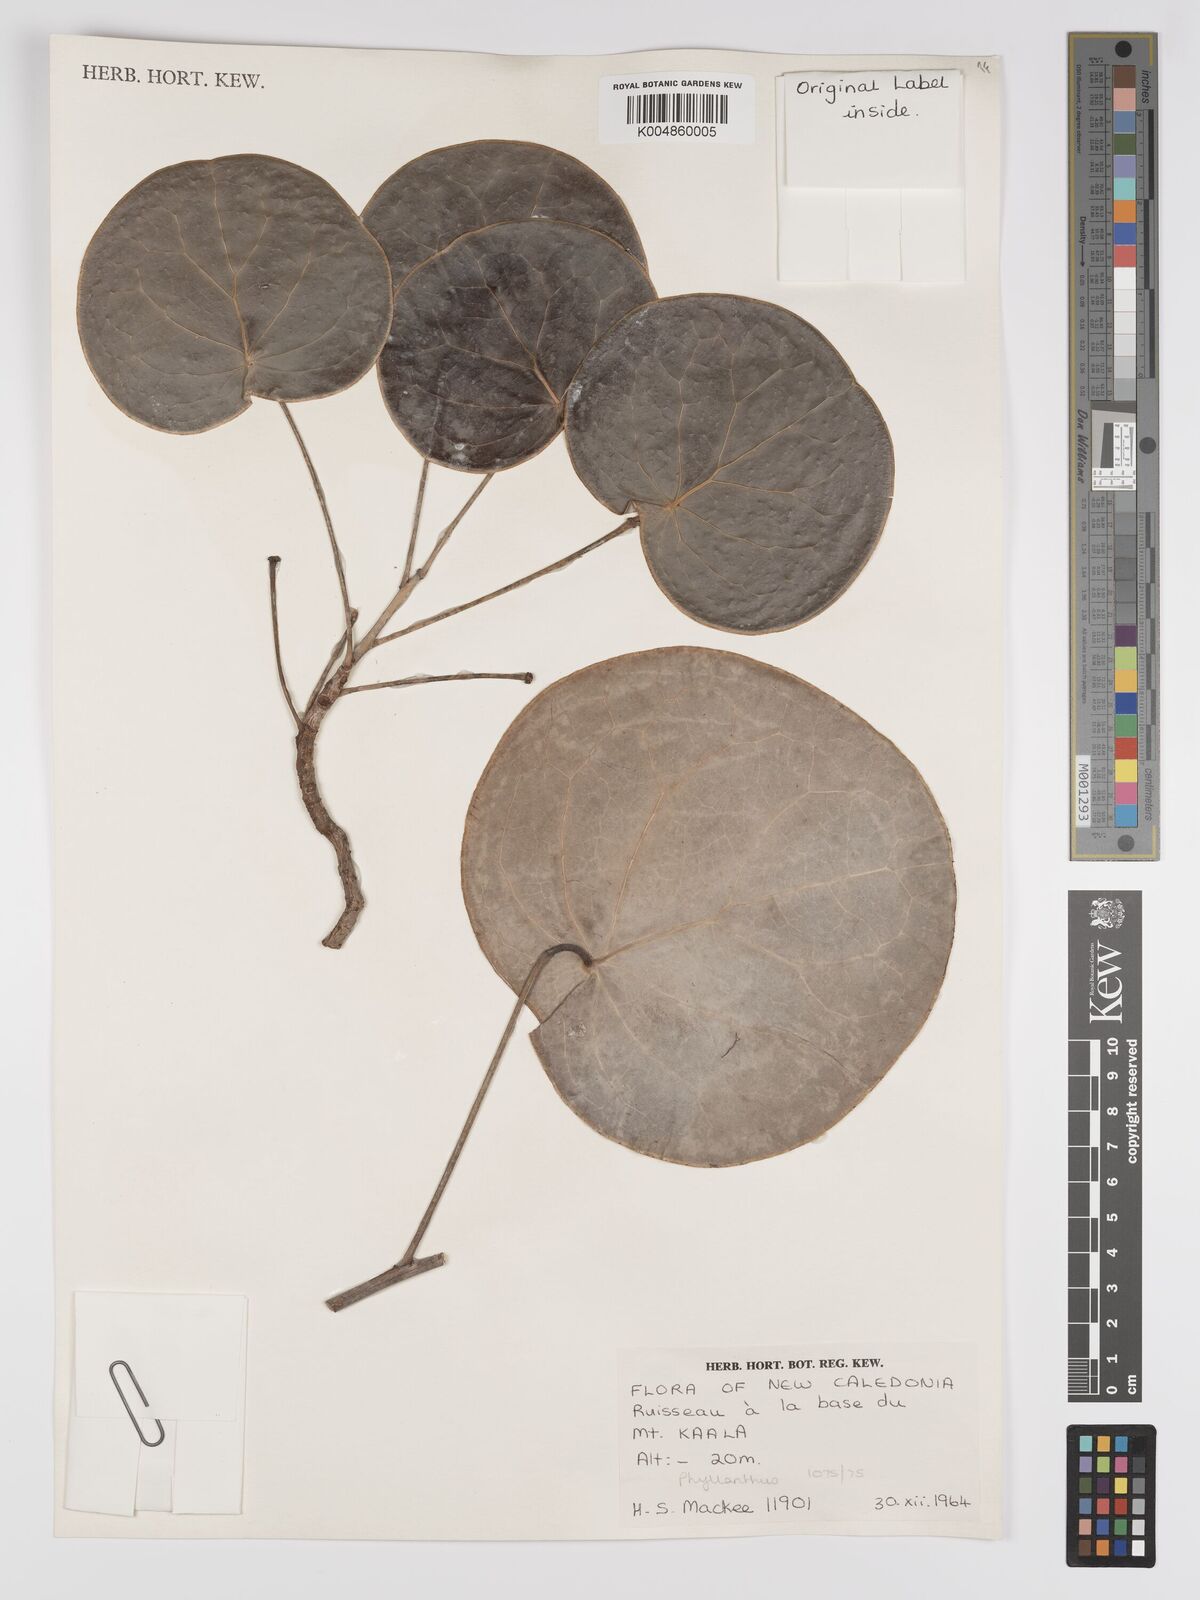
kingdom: Plantae
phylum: Tracheophyta
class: Magnoliopsida
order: Malpighiales
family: Phyllanthaceae
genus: Phyllanthus
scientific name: Phyllanthus
